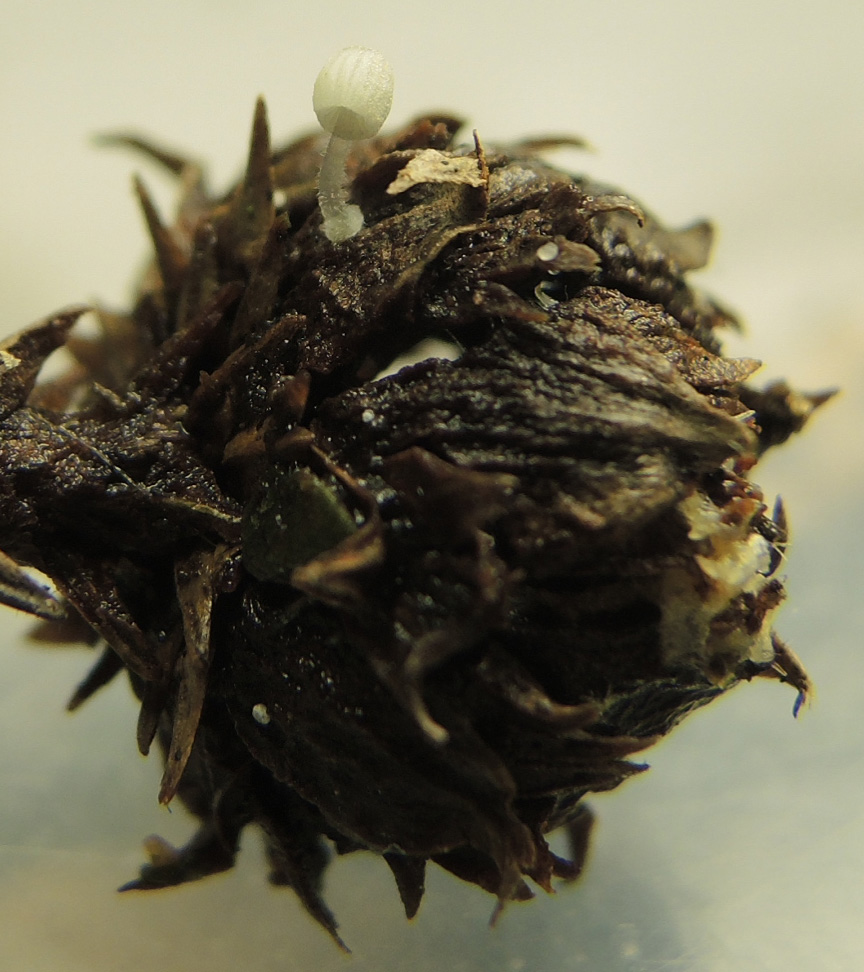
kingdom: Fungi
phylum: Basidiomycota
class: Agaricomycetes
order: Agaricales
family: Mycenaceae
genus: Mycena
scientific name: Mycena tenerrima
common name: pudret huesvamp
